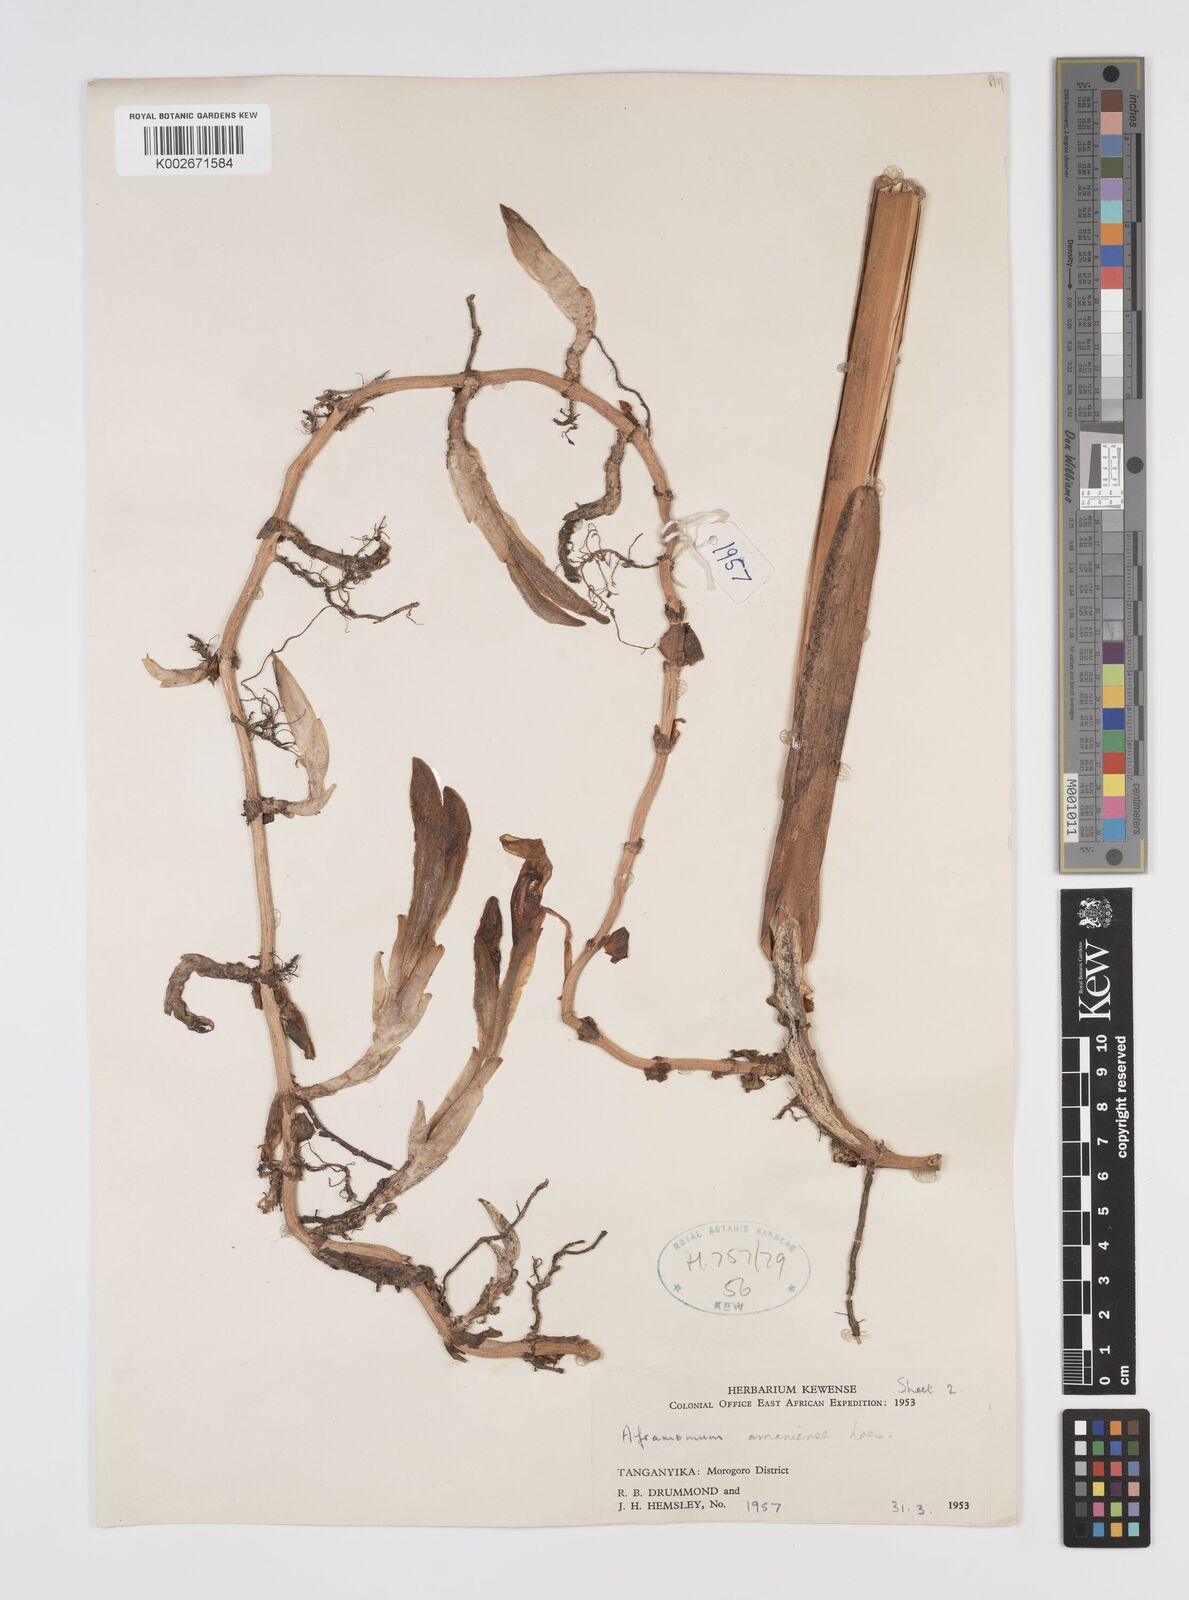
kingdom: Plantae
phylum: Tracheophyta
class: Liliopsida
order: Zingiberales
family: Zingiberaceae
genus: Aframomum
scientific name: Aframomum limbatum
